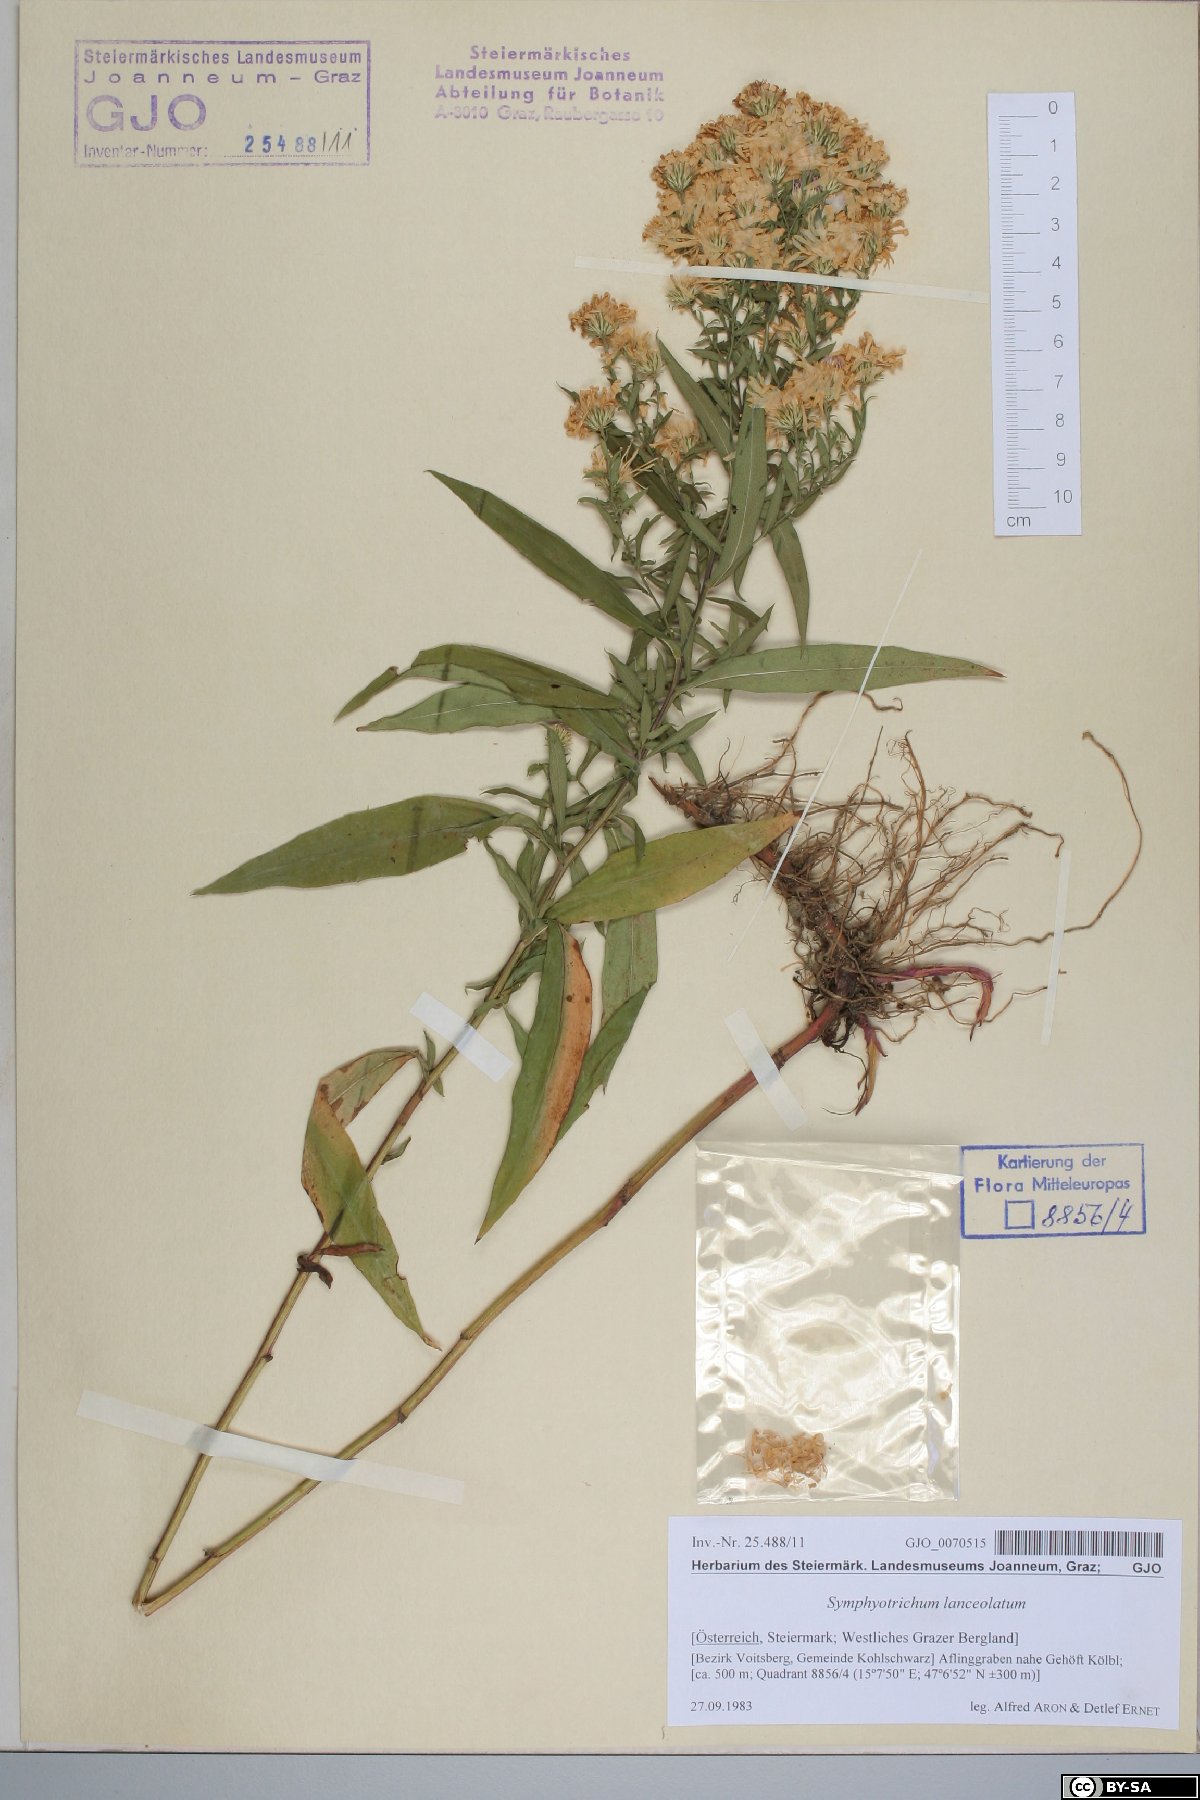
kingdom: Plantae
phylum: Tracheophyta
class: Magnoliopsida
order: Asterales
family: Asteraceae
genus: Symphyotrichum
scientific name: Symphyotrichum lanceolatum
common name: Panicled aster
